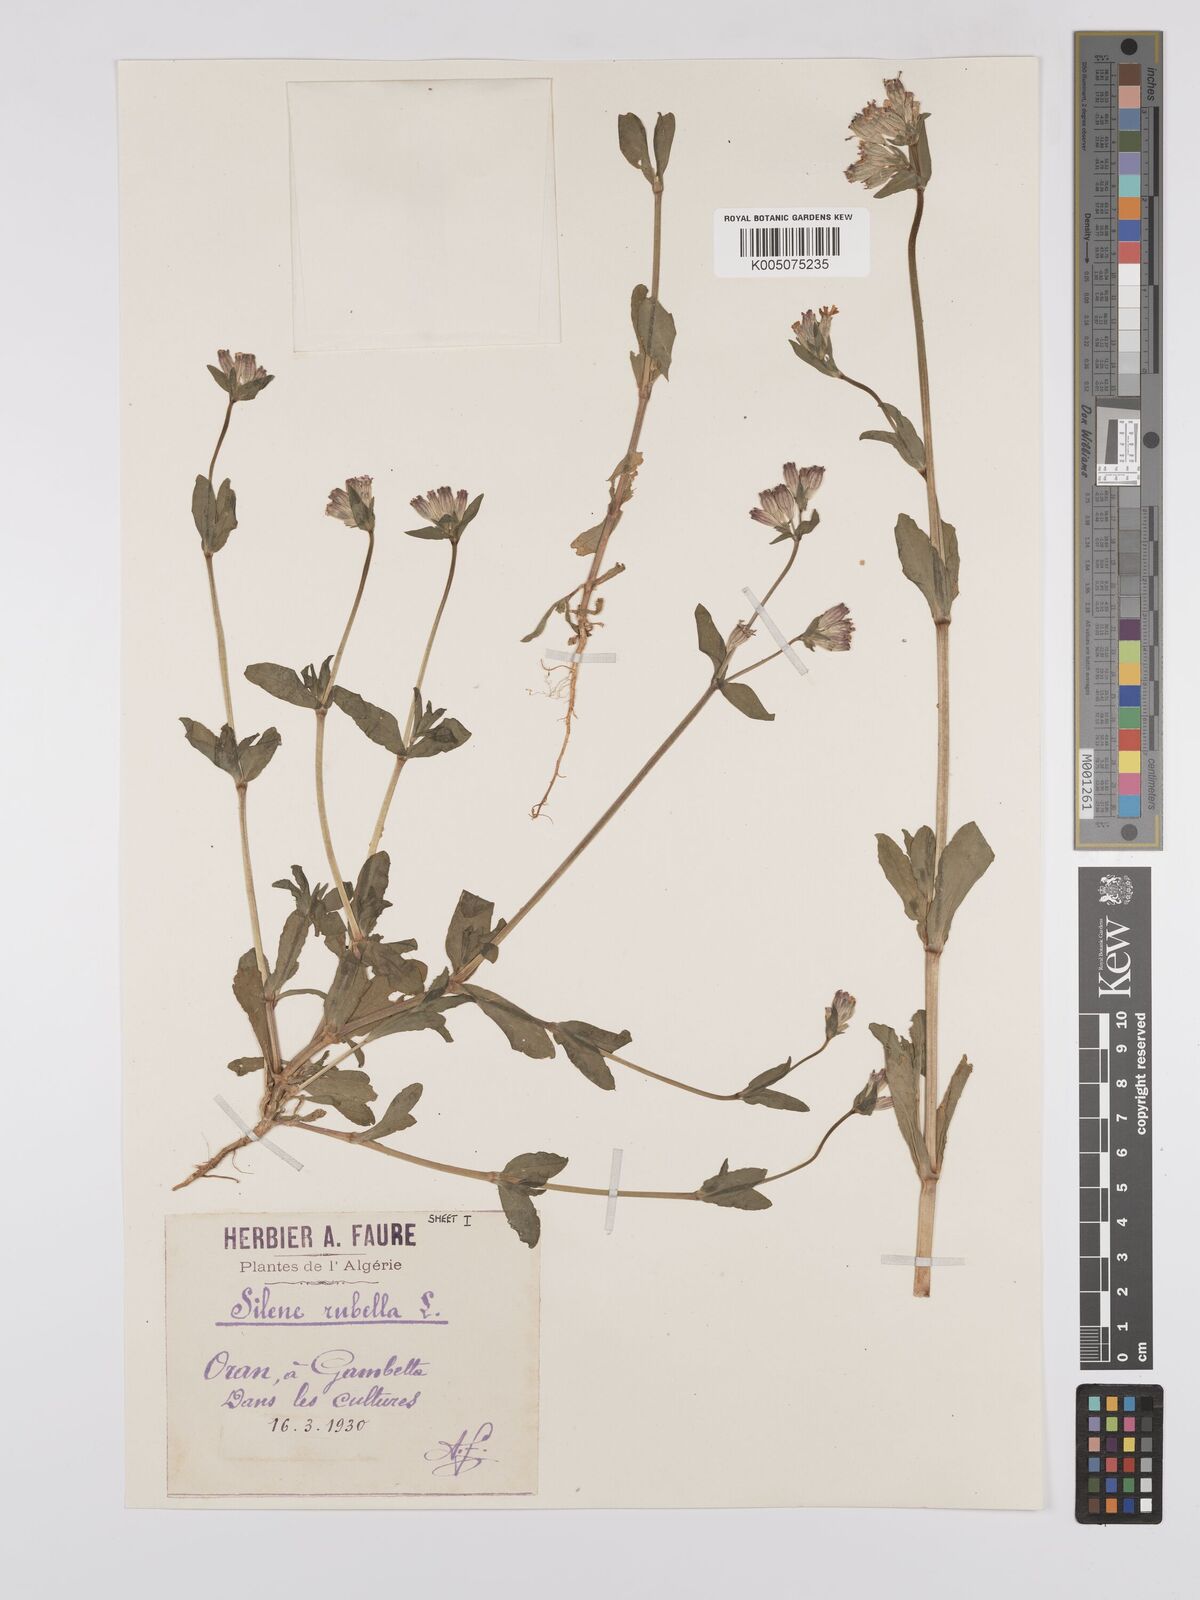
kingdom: Plantae
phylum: Tracheophyta
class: Magnoliopsida
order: Caryophyllales
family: Caryophyllaceae
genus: Silene
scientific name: Silene rubella
